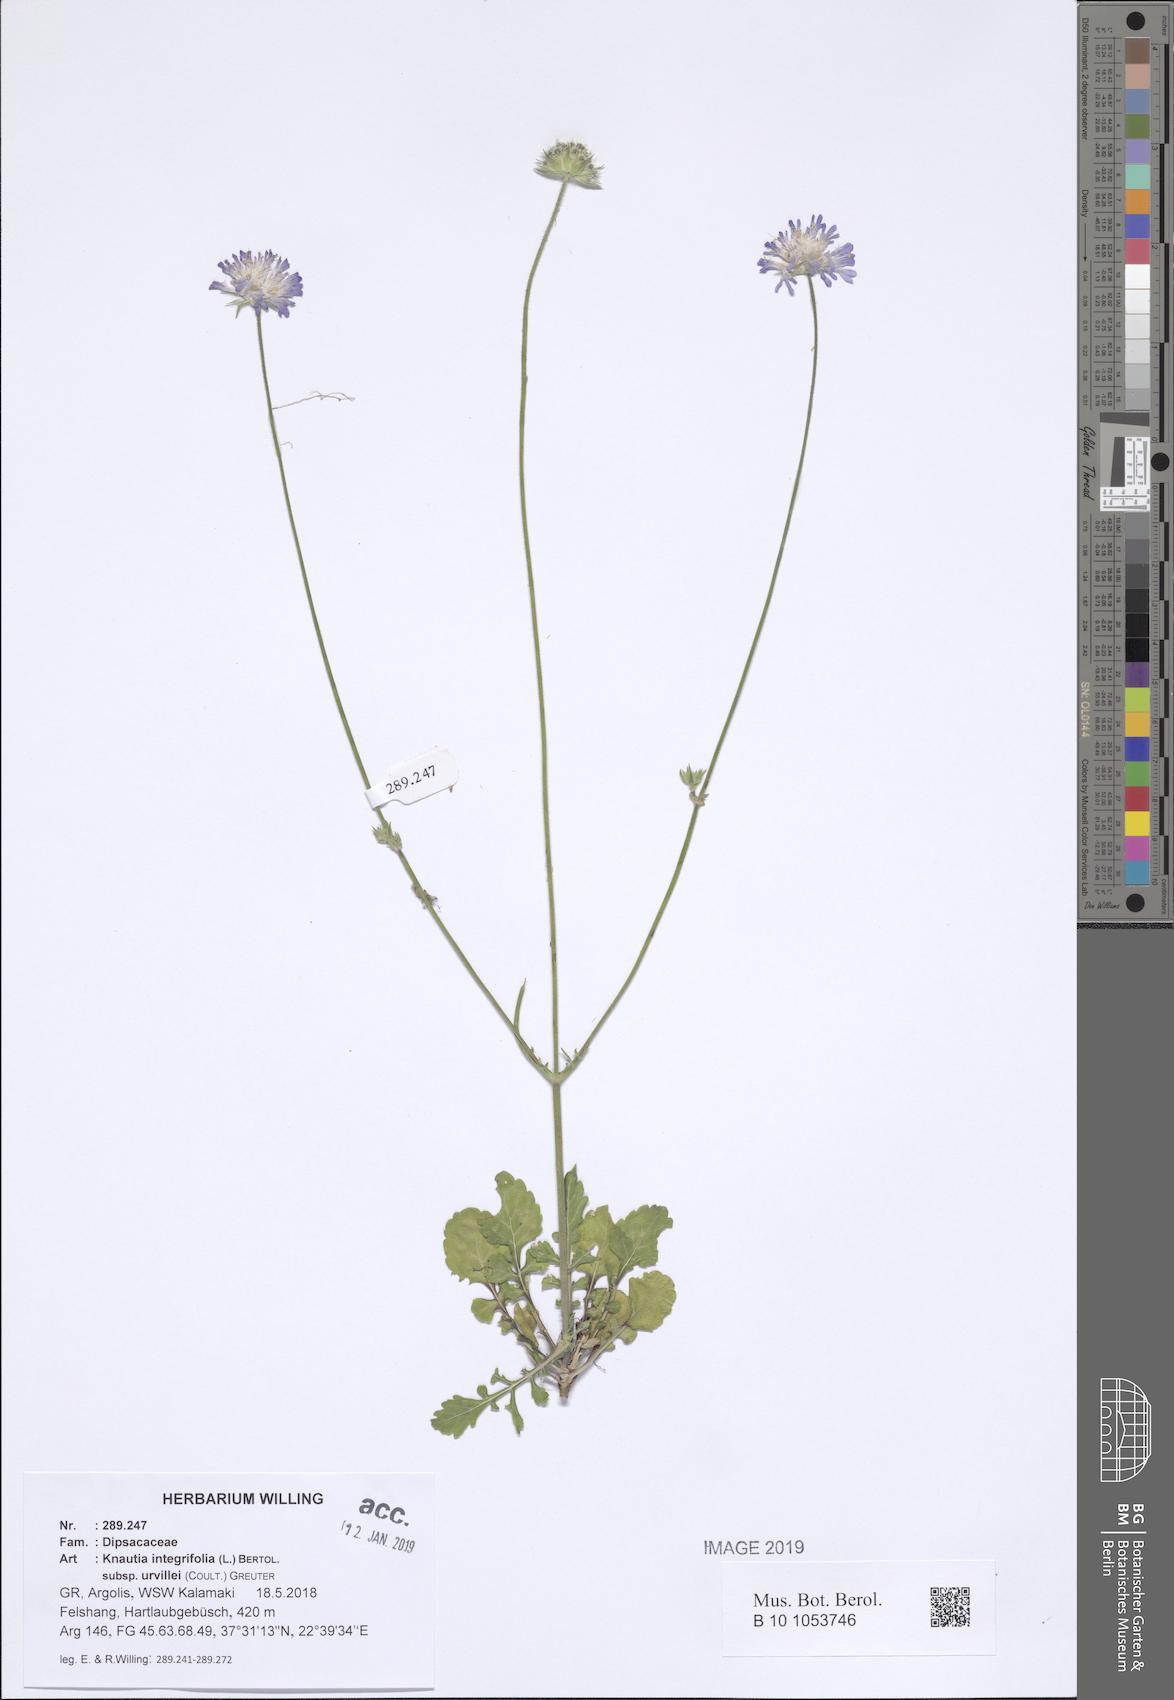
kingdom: Plantae
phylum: Tracheophyta
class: Magnoliopsida
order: Dipsacales
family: Caprifoliaceae
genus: Knautia
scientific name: Knautia integrifolia
